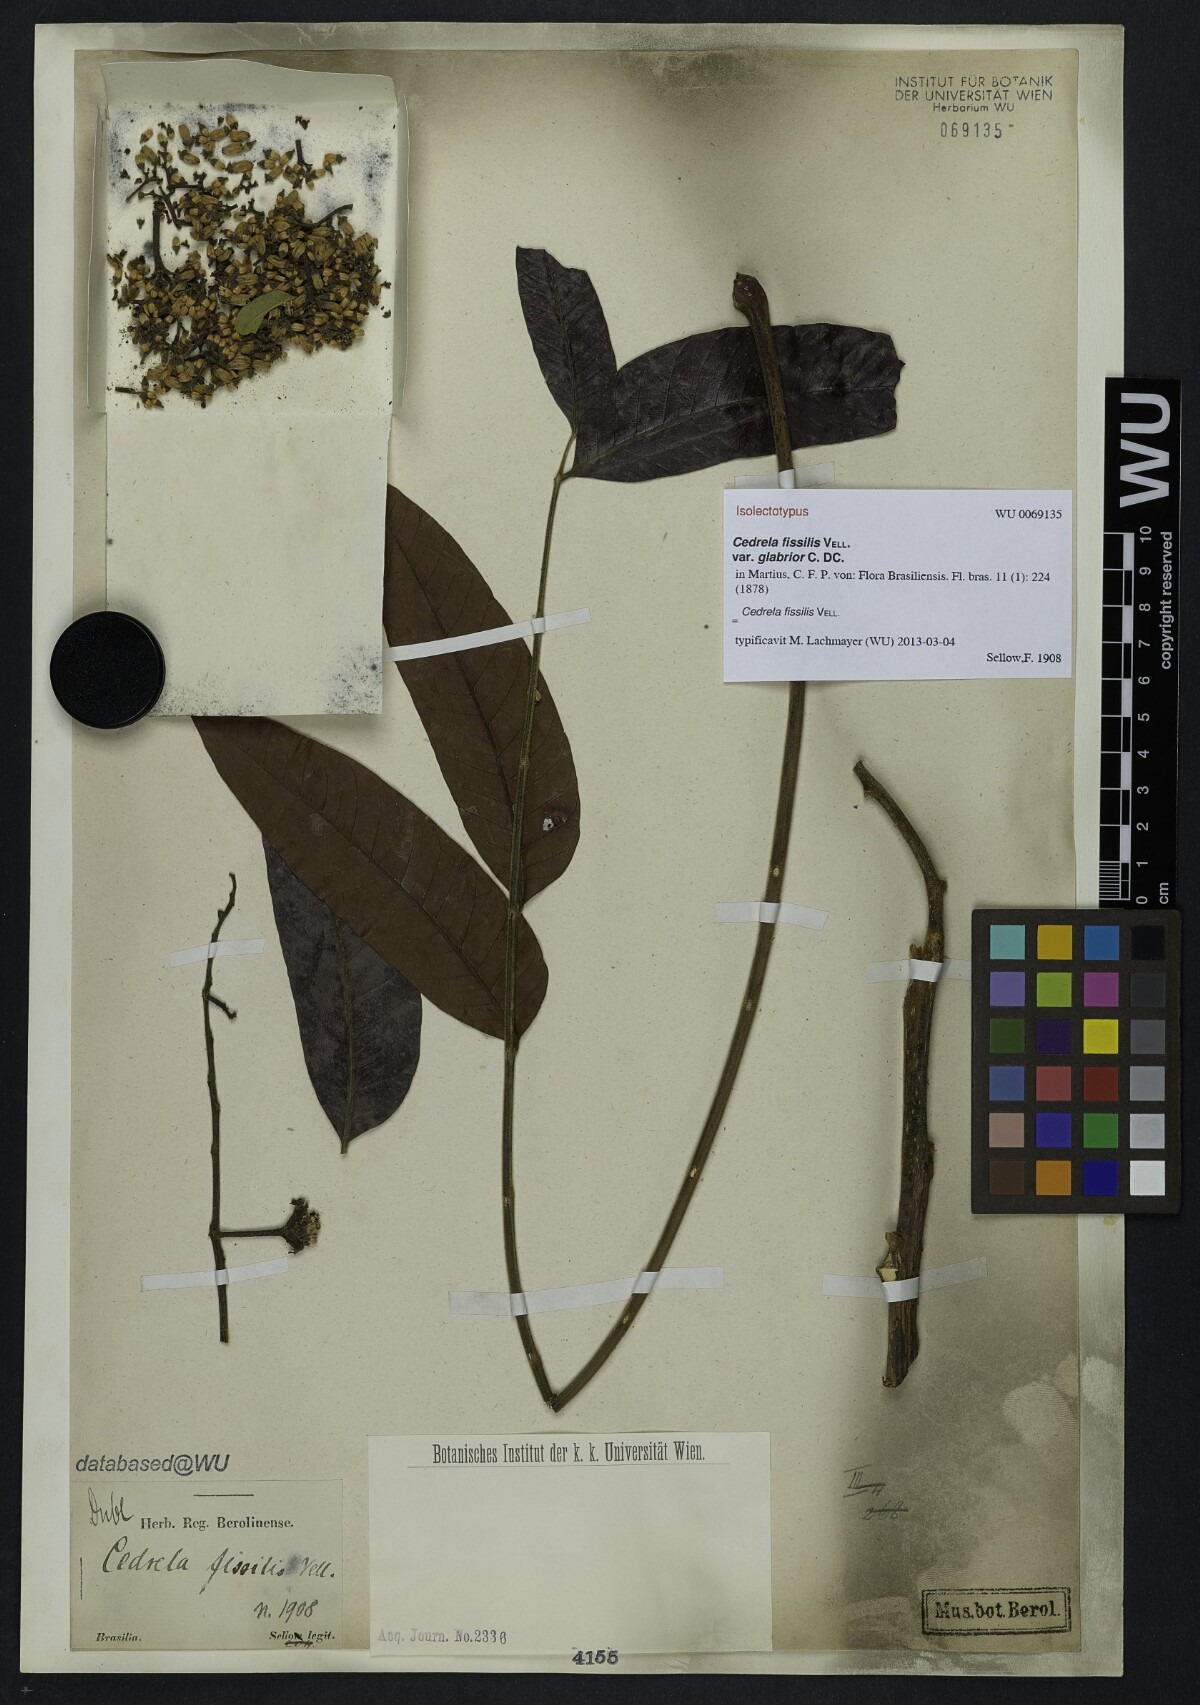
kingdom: Plantae
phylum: Tracheophyta
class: Magnoliopsida
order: Sapindales
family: Meliaceae
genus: Cedrela
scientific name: Cedrela fissilis
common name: Argentine cedar
